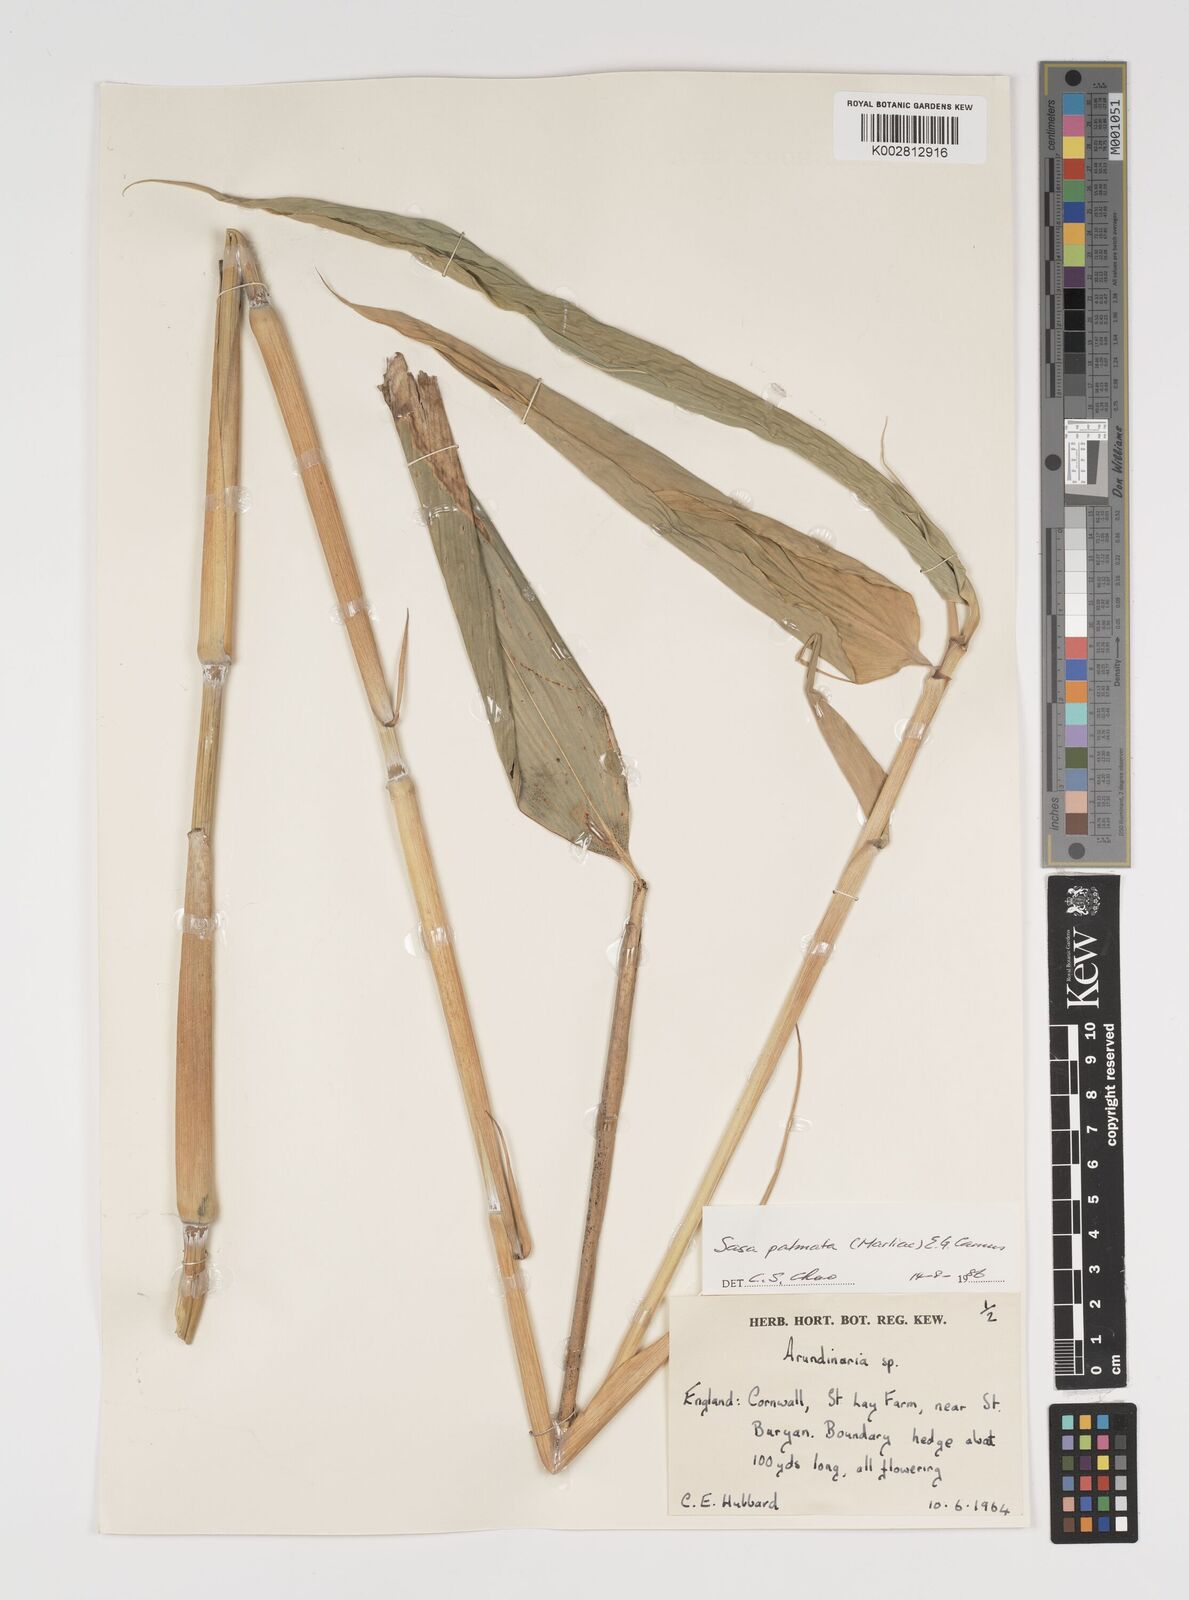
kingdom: Plantae
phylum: Tracheophyta
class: Liliopsida
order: Poales
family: Poaceae
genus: Sasa
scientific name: Sasa palmata
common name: Broad-leaved bamboo
